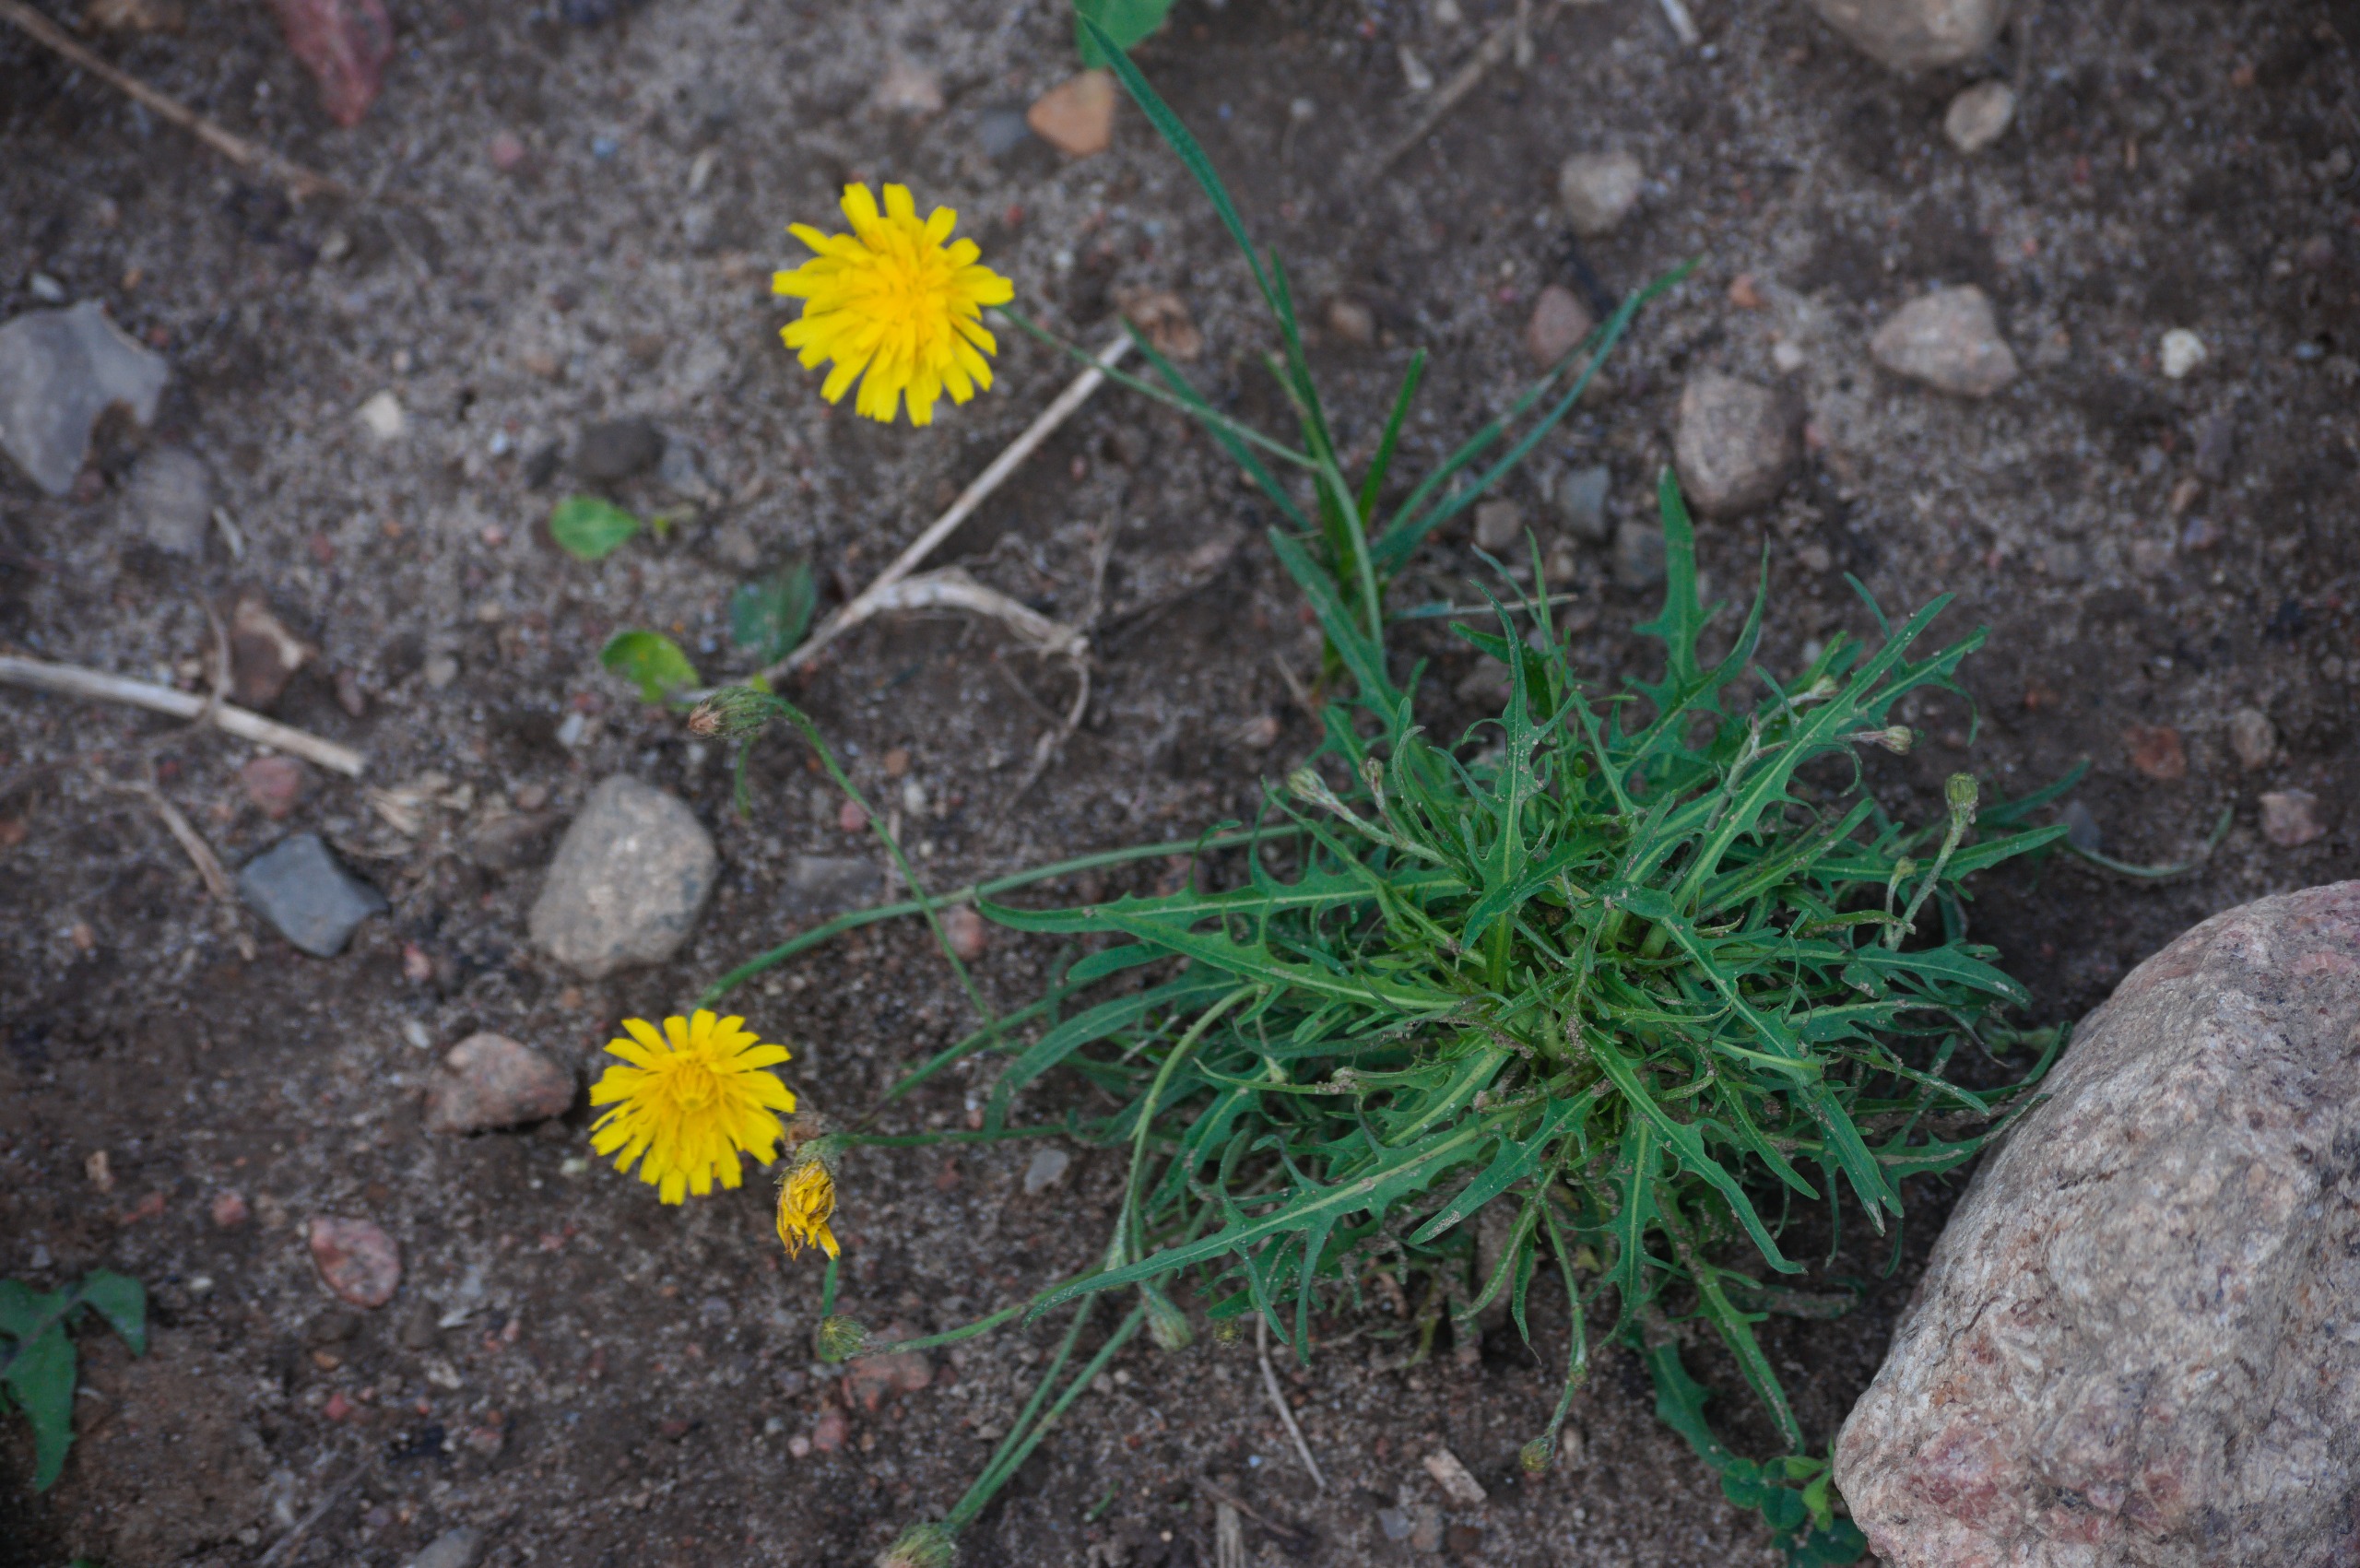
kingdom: Plantae
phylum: Tracheophyta
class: Magnoliopsida
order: Asterales
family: Asteraceae
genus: Scorzoneroides
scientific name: Scorzoneroides autumnalis
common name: Høst-borst
